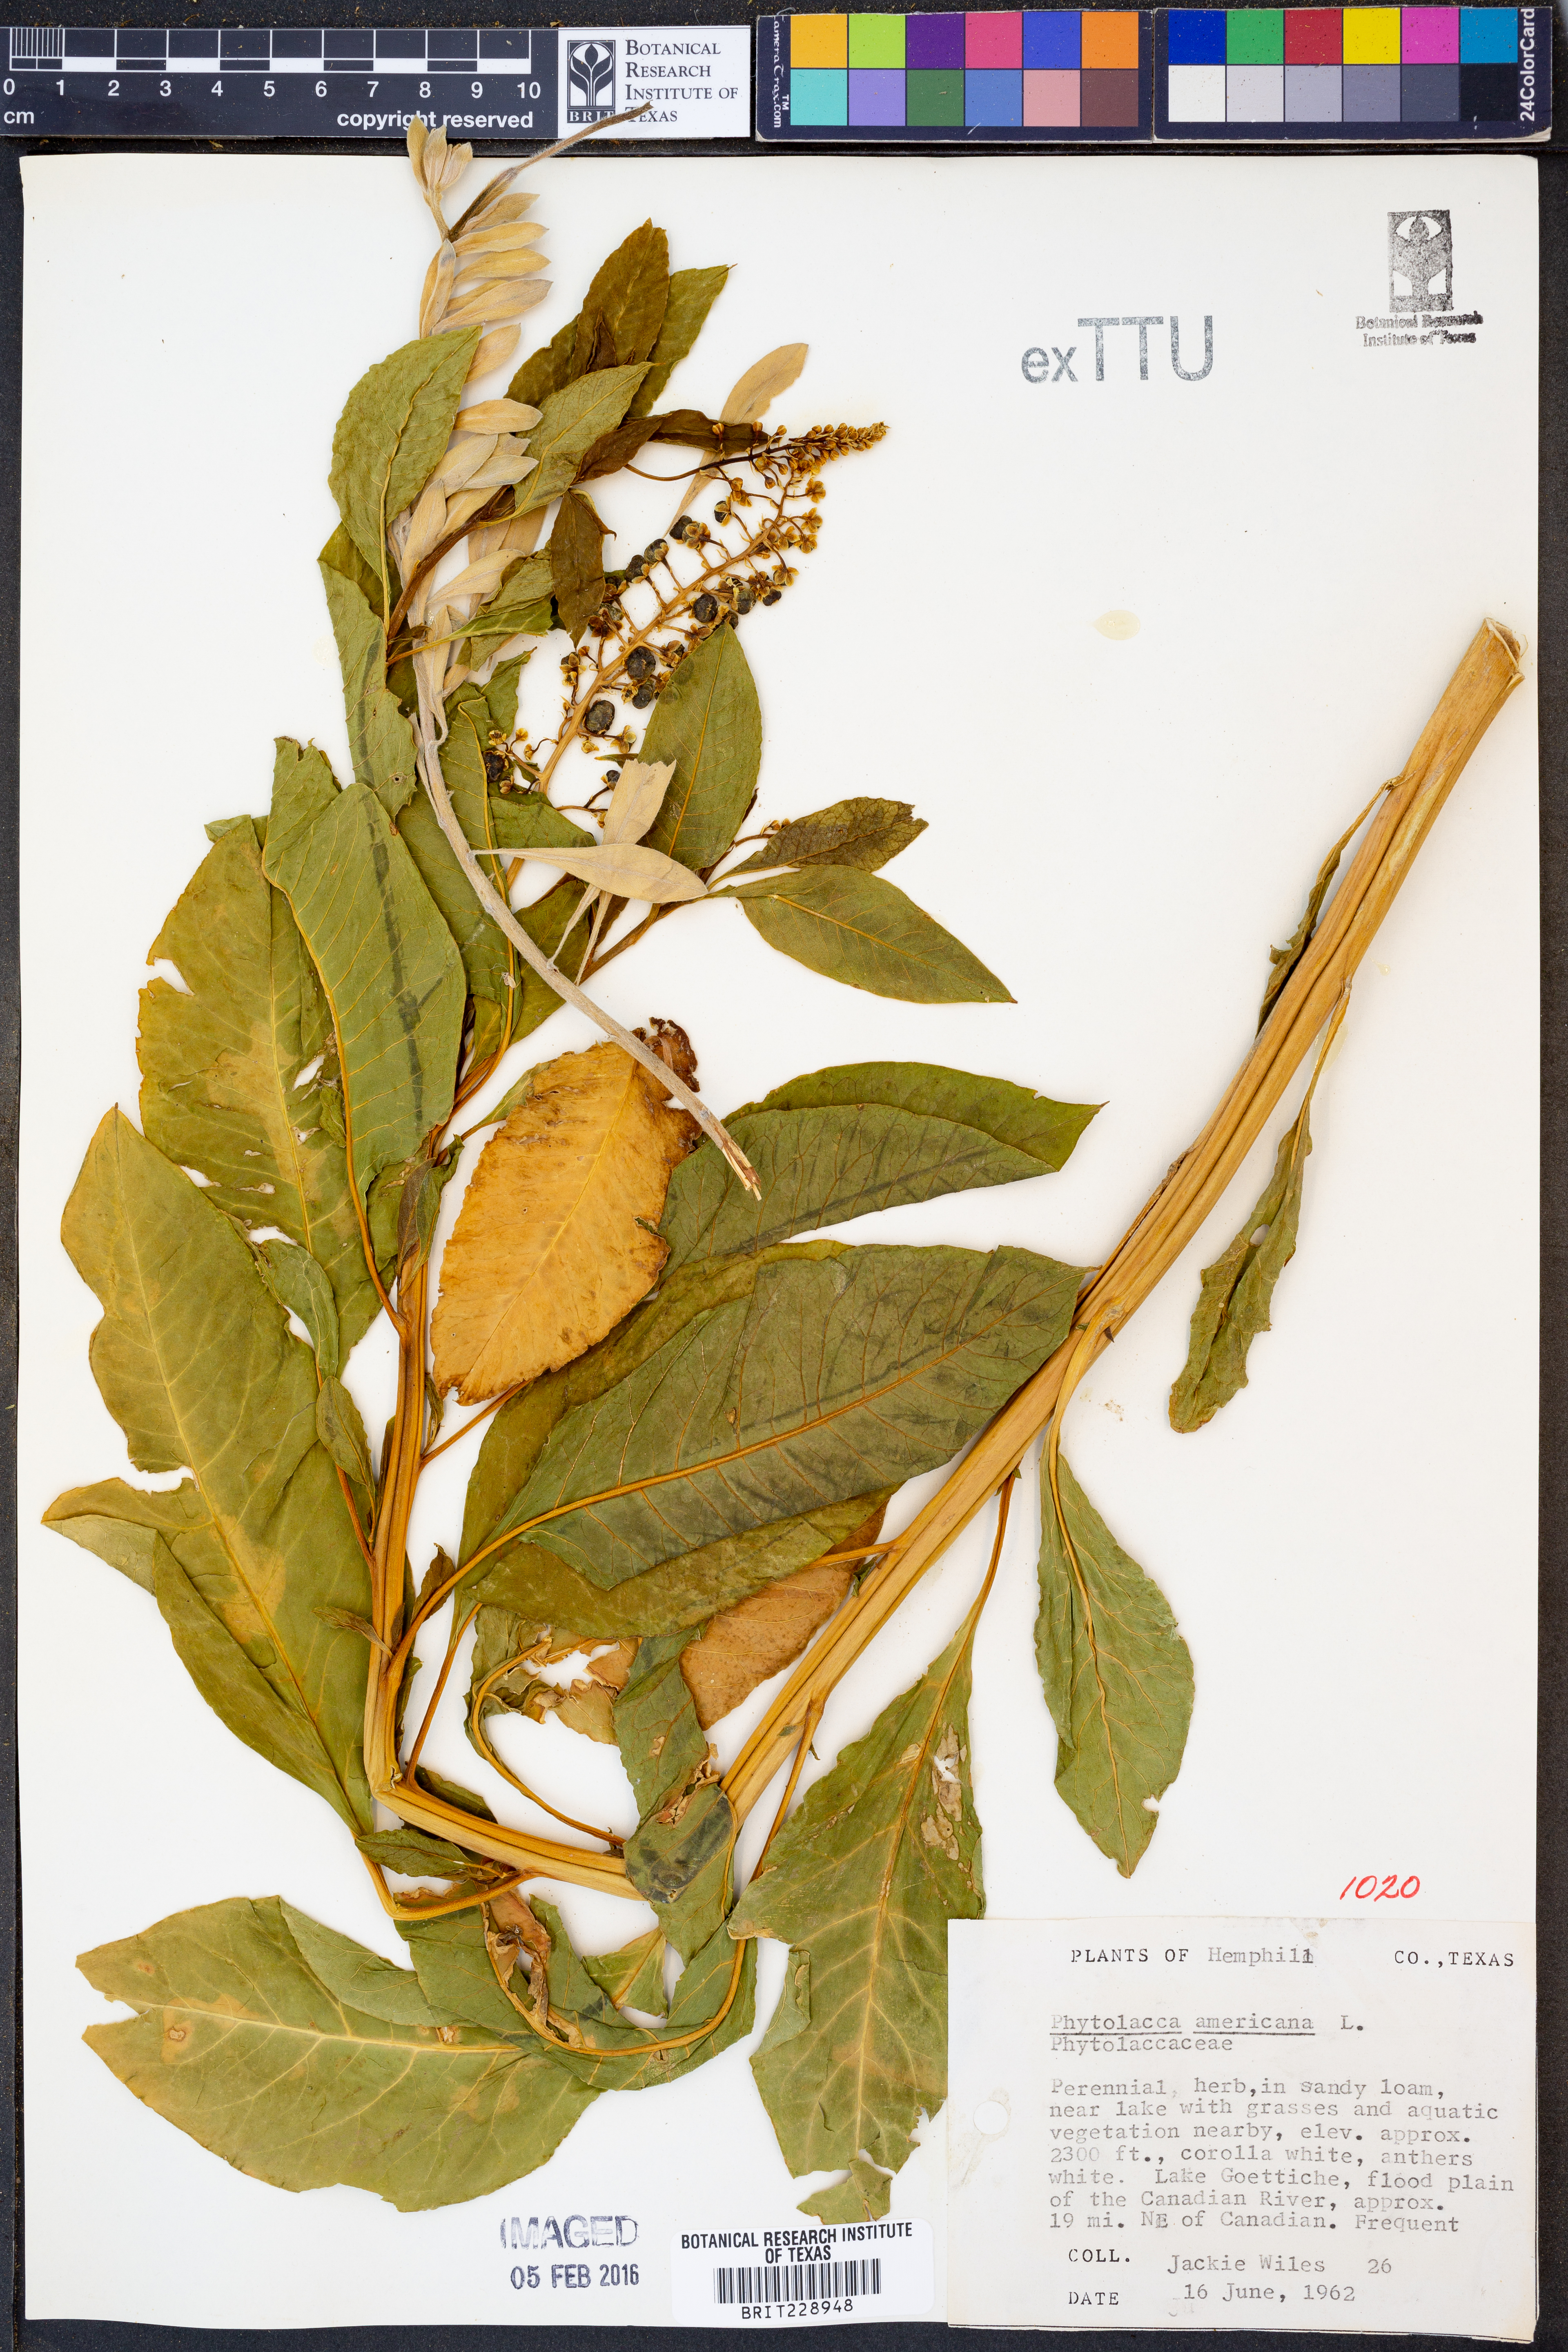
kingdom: Plantae
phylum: Tracheophyta
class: Magnoliopsida
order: Caryophyllales
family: Phytolaccaceae
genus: Phytolacca
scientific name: Phytolacca americana
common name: American pokeweed
